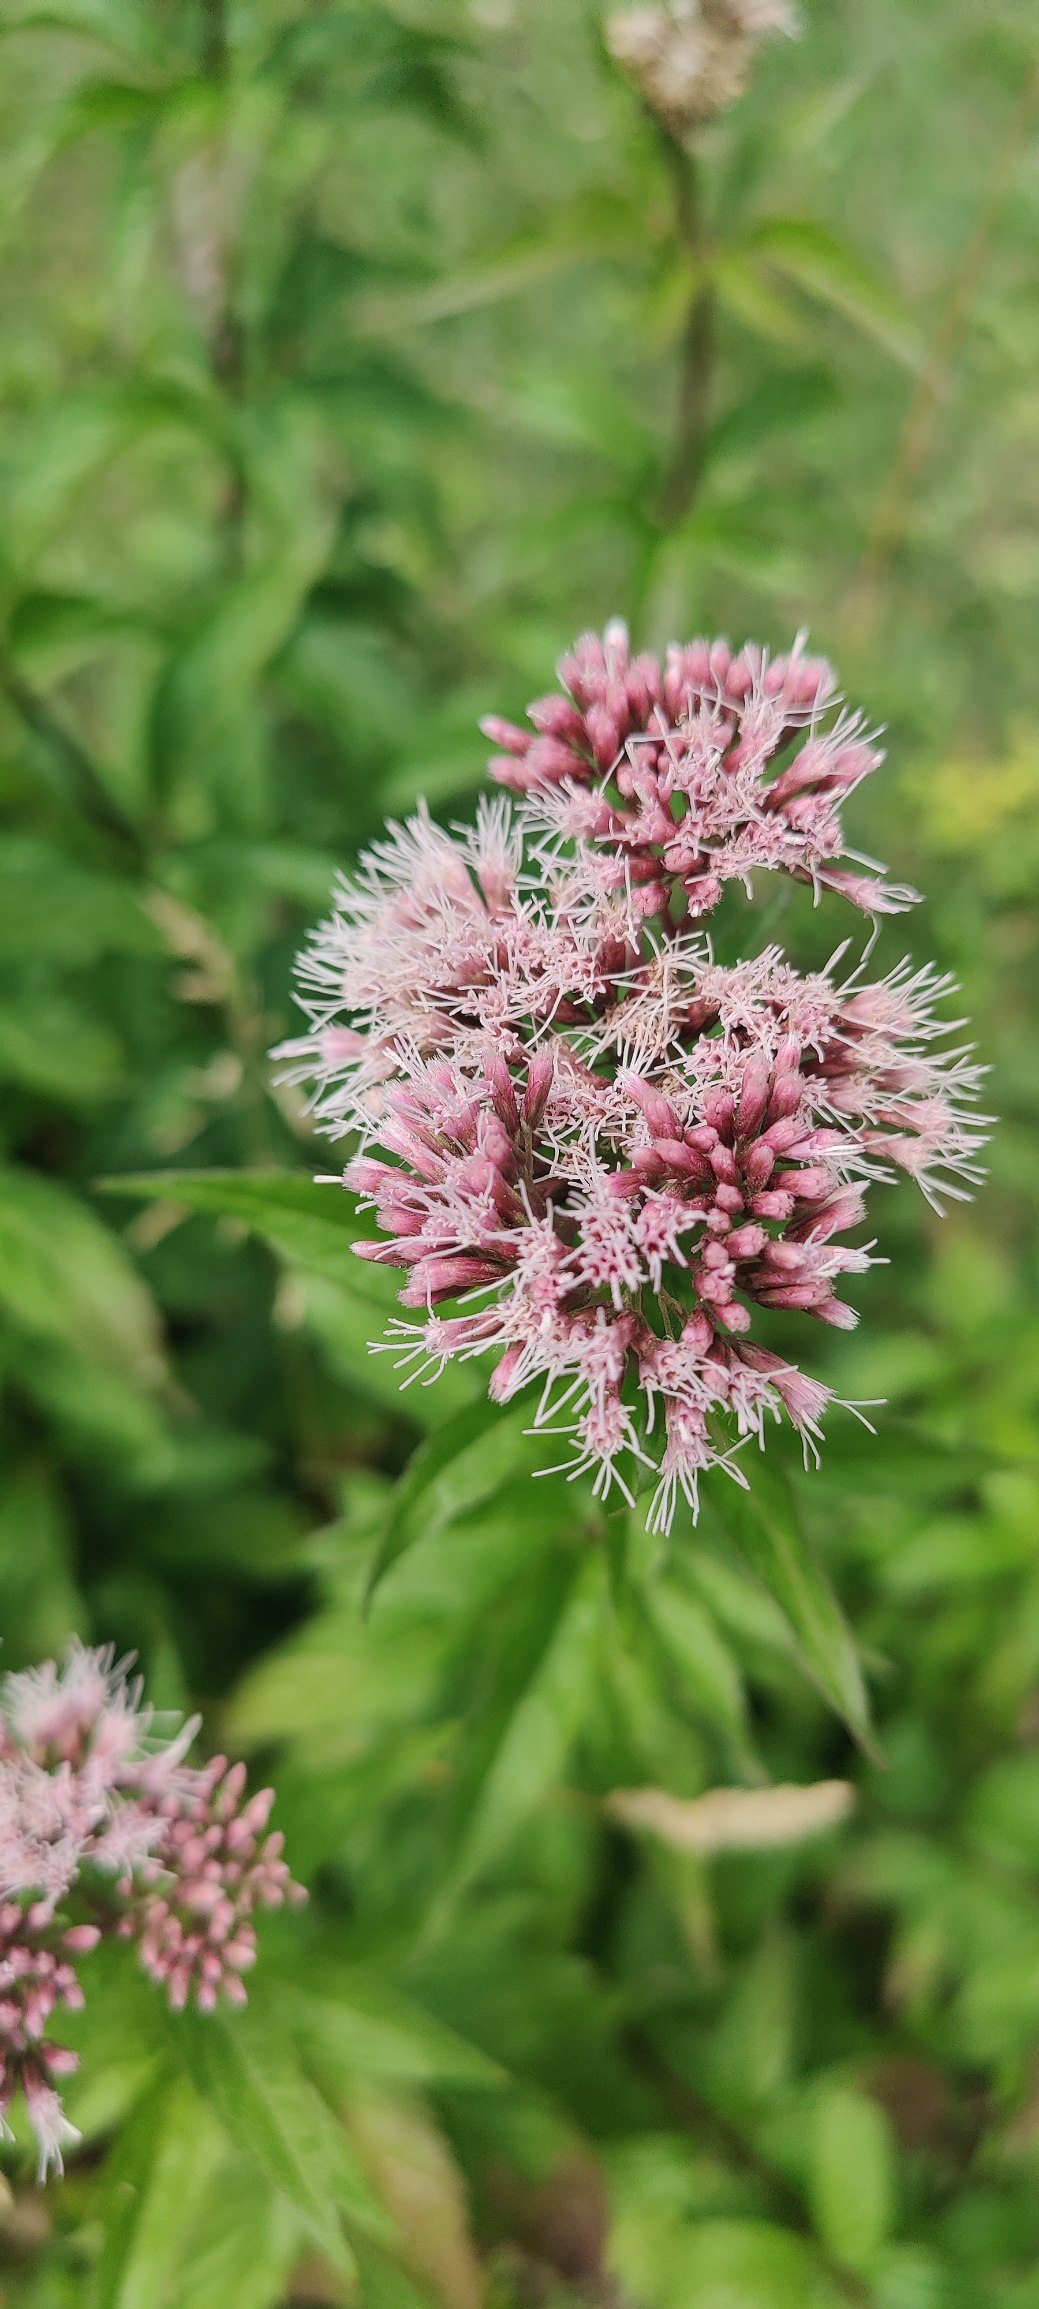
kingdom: Plantae
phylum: Tracheophyta
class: Magnoliopsida
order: Asterales
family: Asteraceae
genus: Eupatorium
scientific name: Eupatorium cannabinum
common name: Hjortetrøst
